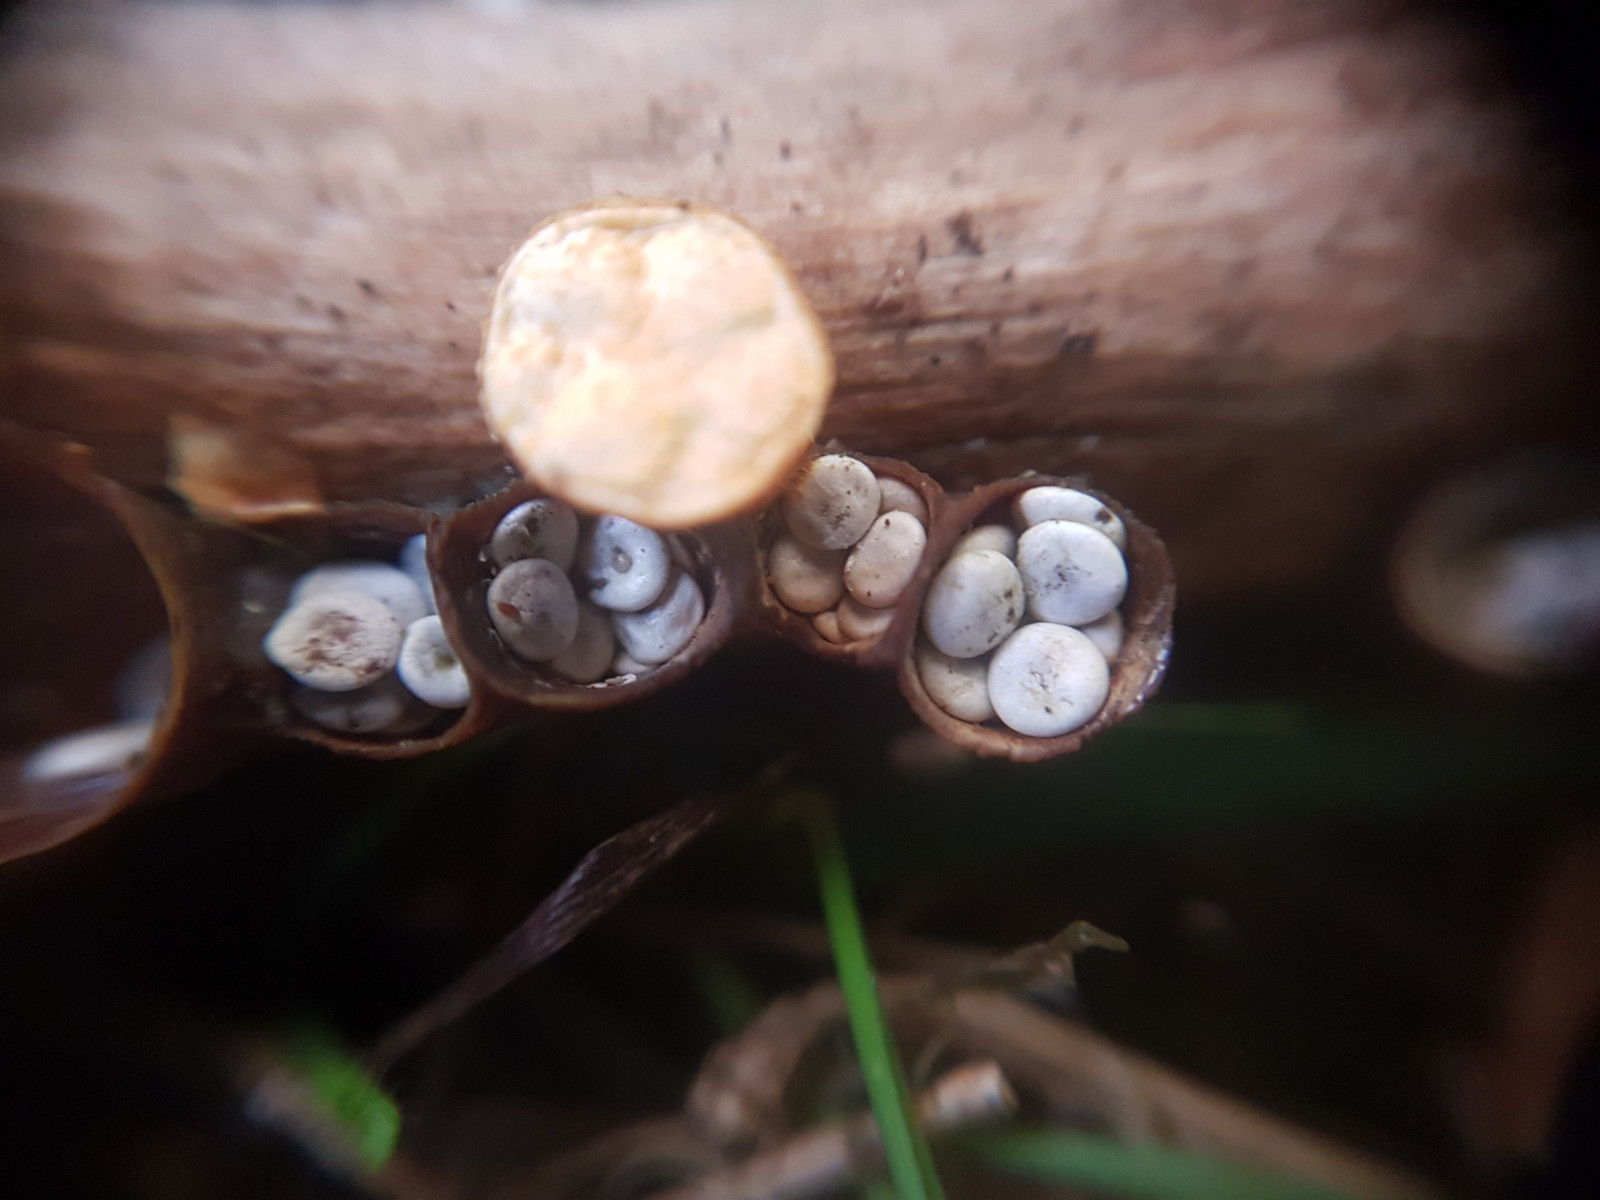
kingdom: Fungi
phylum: Basidiomycota
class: Agaricomycetes
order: Agaricales
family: Nidulariaceae
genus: Crucibulum
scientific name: Crucibulum crucibuliforme
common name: krukkesvamp
